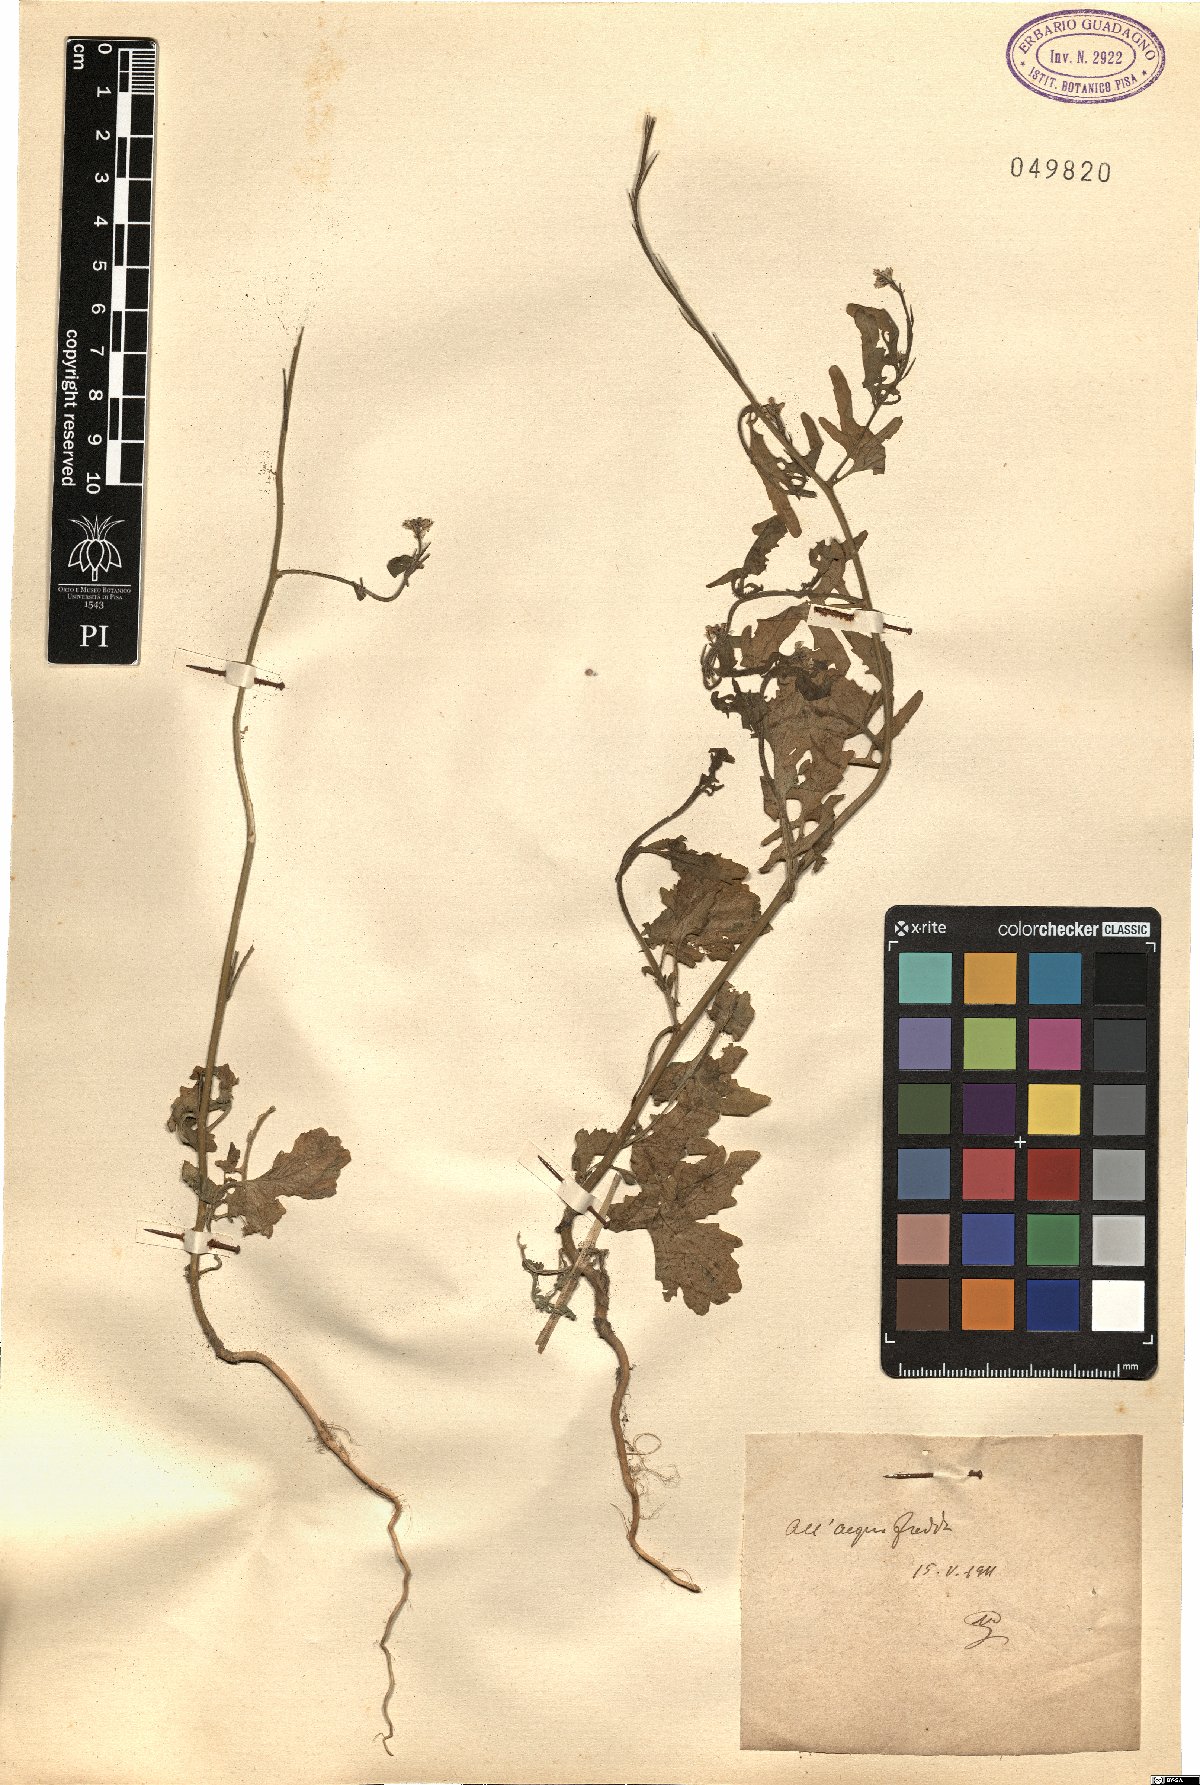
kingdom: Plantae
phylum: Tracheophyta
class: Magnoliopsida
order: Brassicales
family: Brassicaceae
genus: Sisymbrium
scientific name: Sisymbrium
